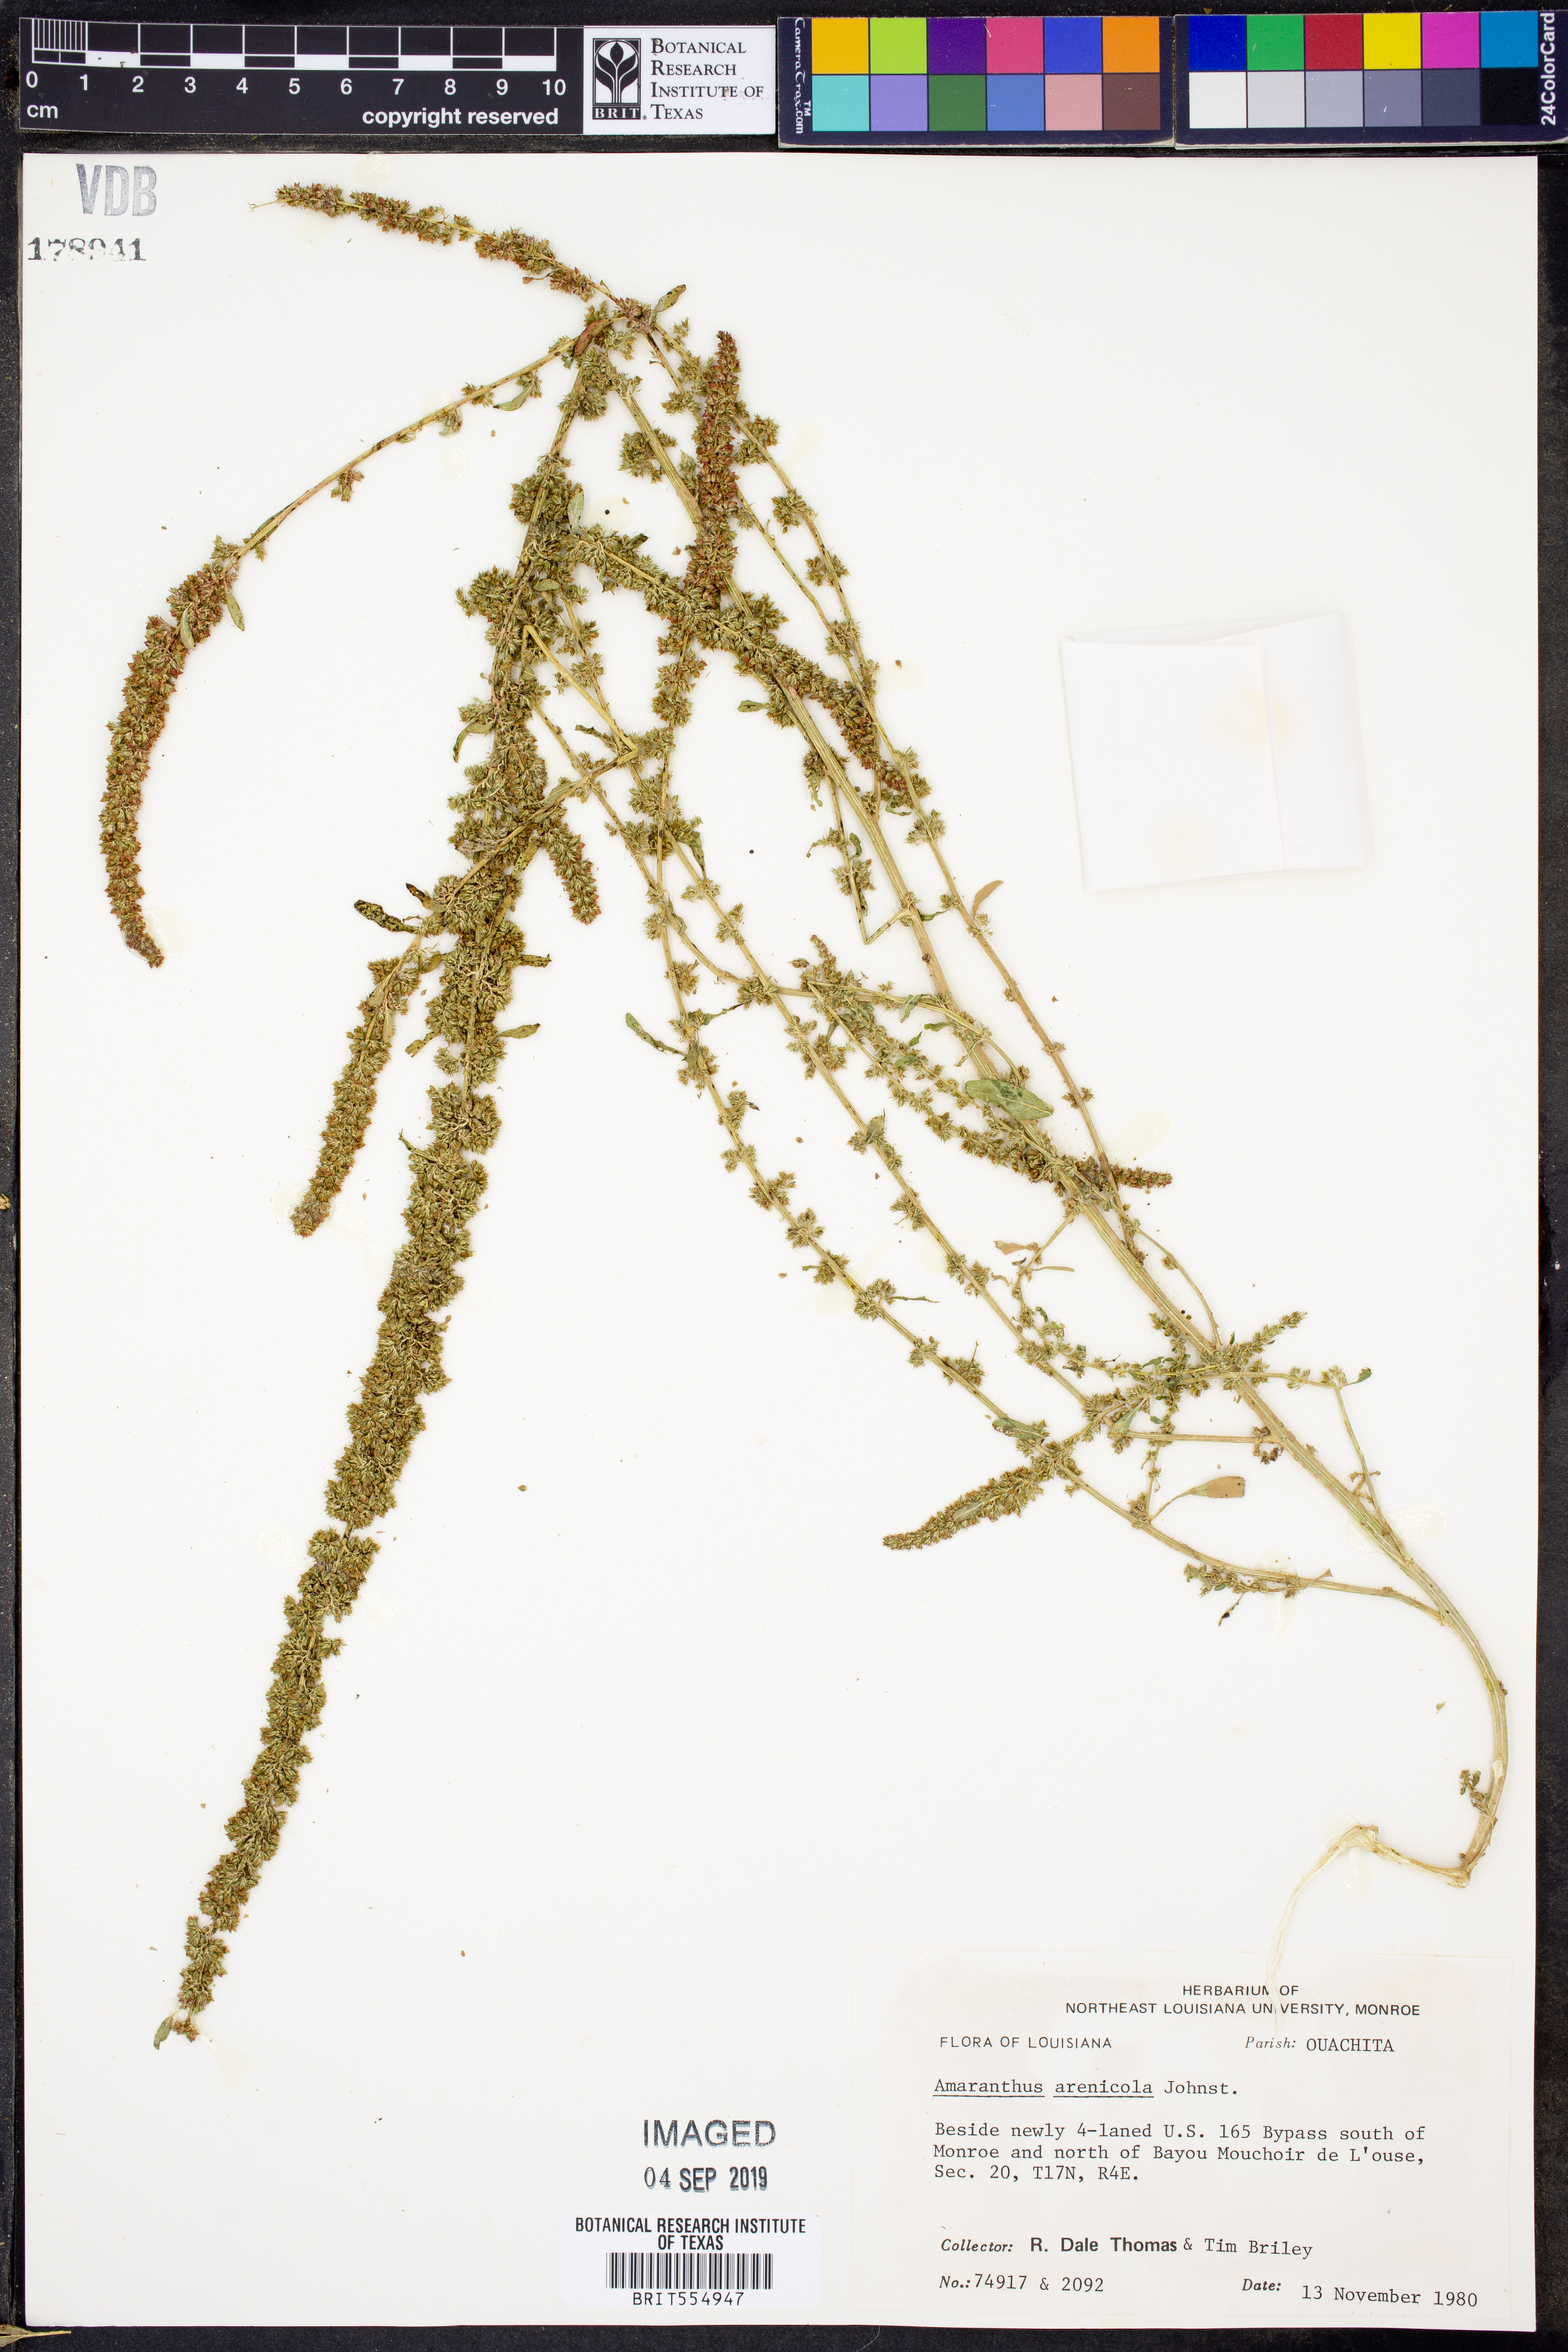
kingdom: Plantae
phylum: Tracheophyta
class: Magnoliopsida
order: Caryophyllales
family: Amaranthaceae
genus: Amaranthus
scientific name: Amaranthus arenicola
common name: Sandhills amaranth
